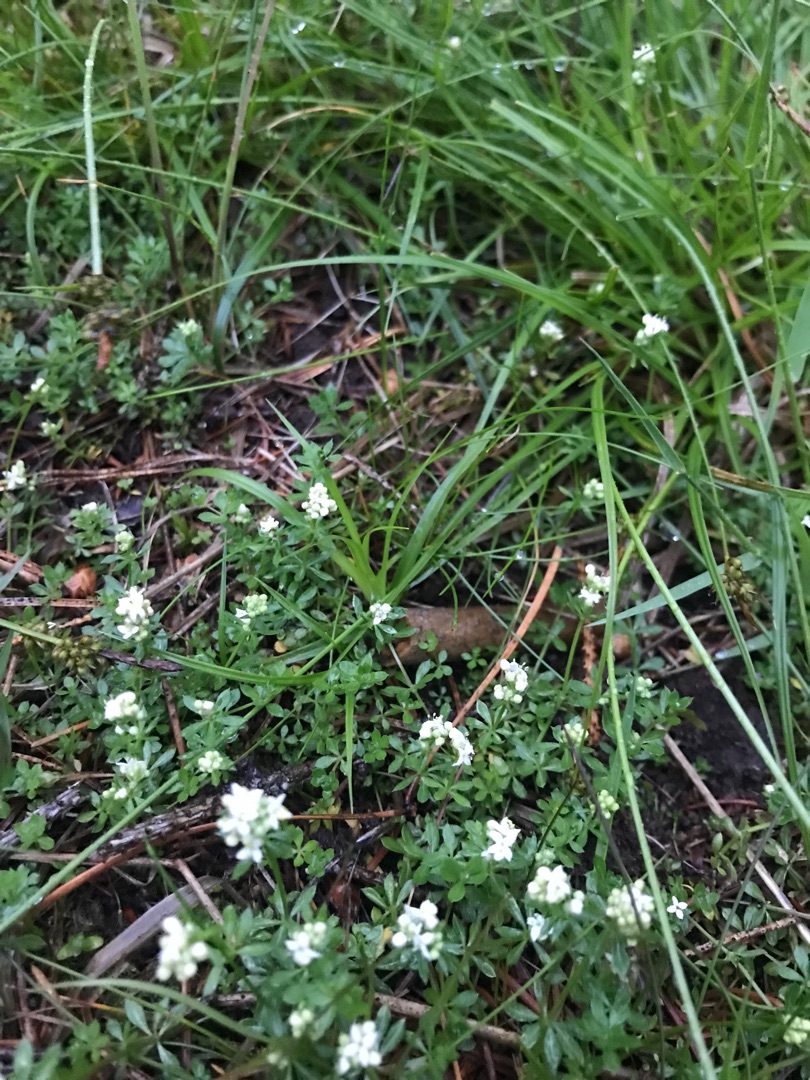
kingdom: Plantae
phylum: Tracheophyta
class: Magnoliopsida
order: Gentianales
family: Rubiaceae
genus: Galium
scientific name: Galium saxatile
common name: Lyng-snerre
